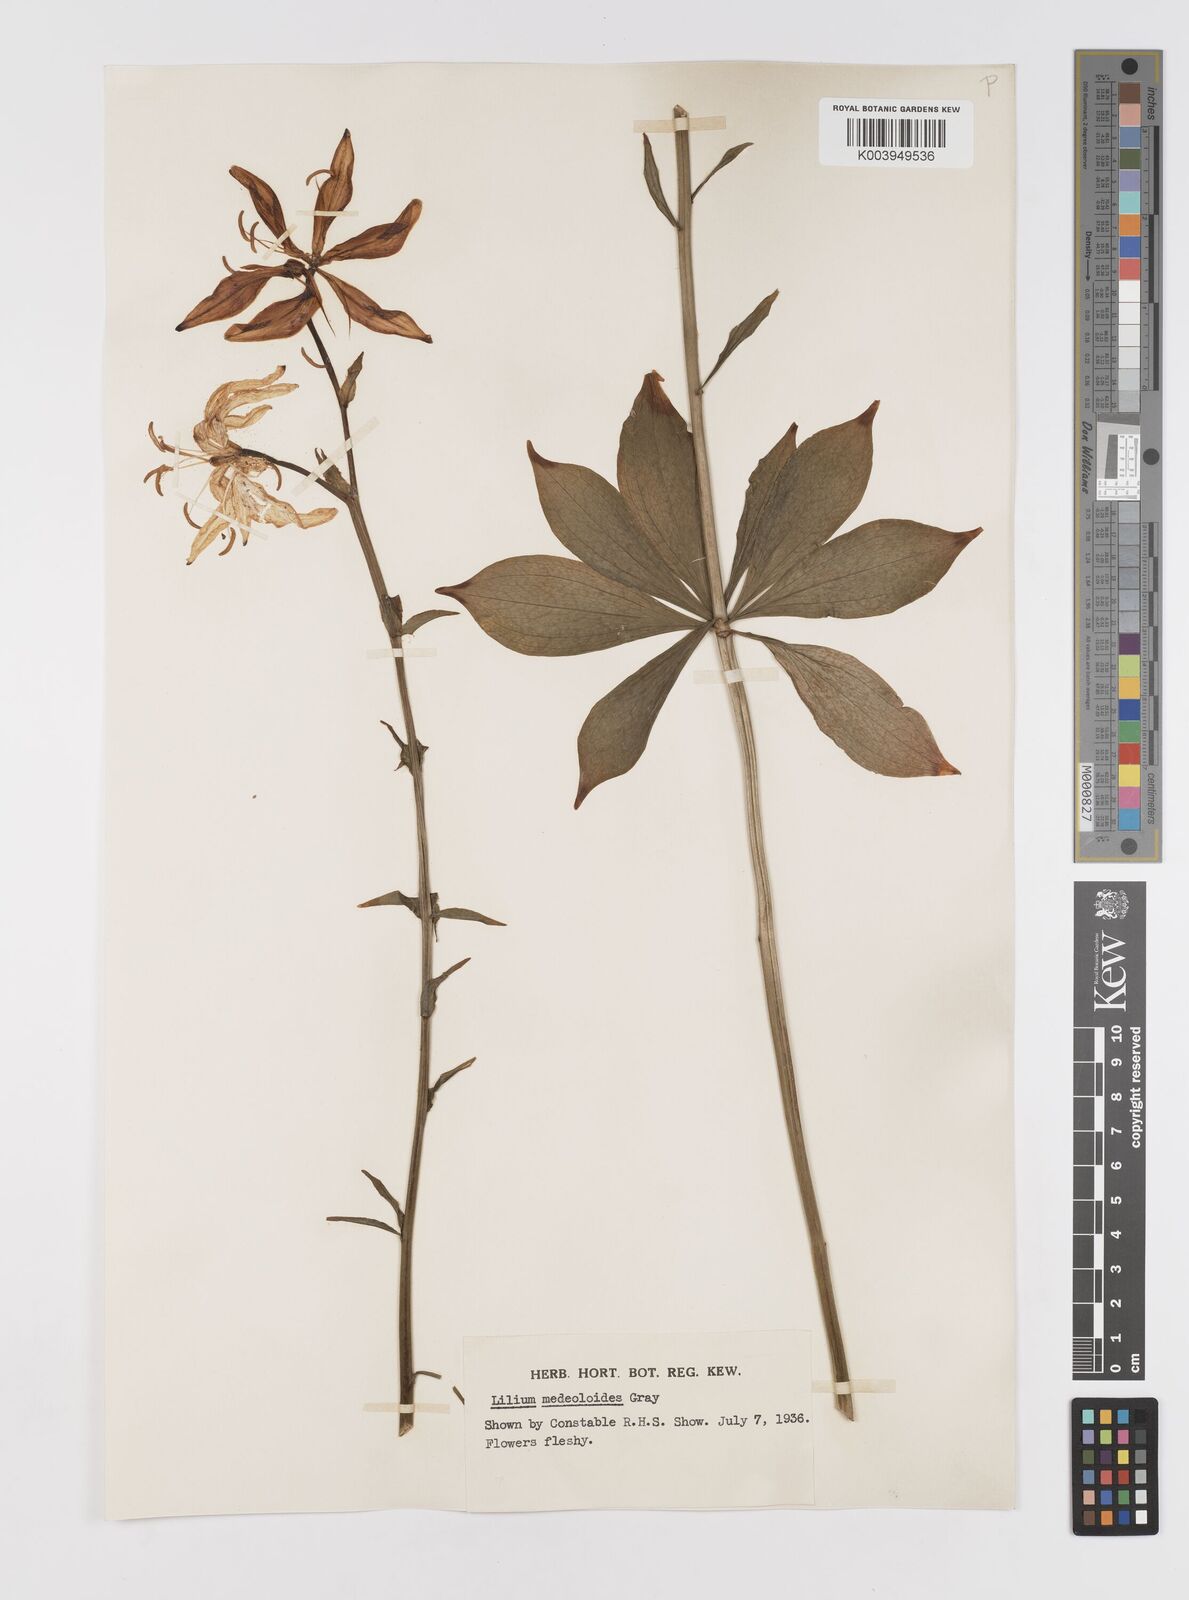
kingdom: Plantae
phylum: Tracheophyta
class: Liliopsida
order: Liliales
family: Liliaceae
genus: Lilium
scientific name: Lilium medeoloides
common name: Wheel lily
